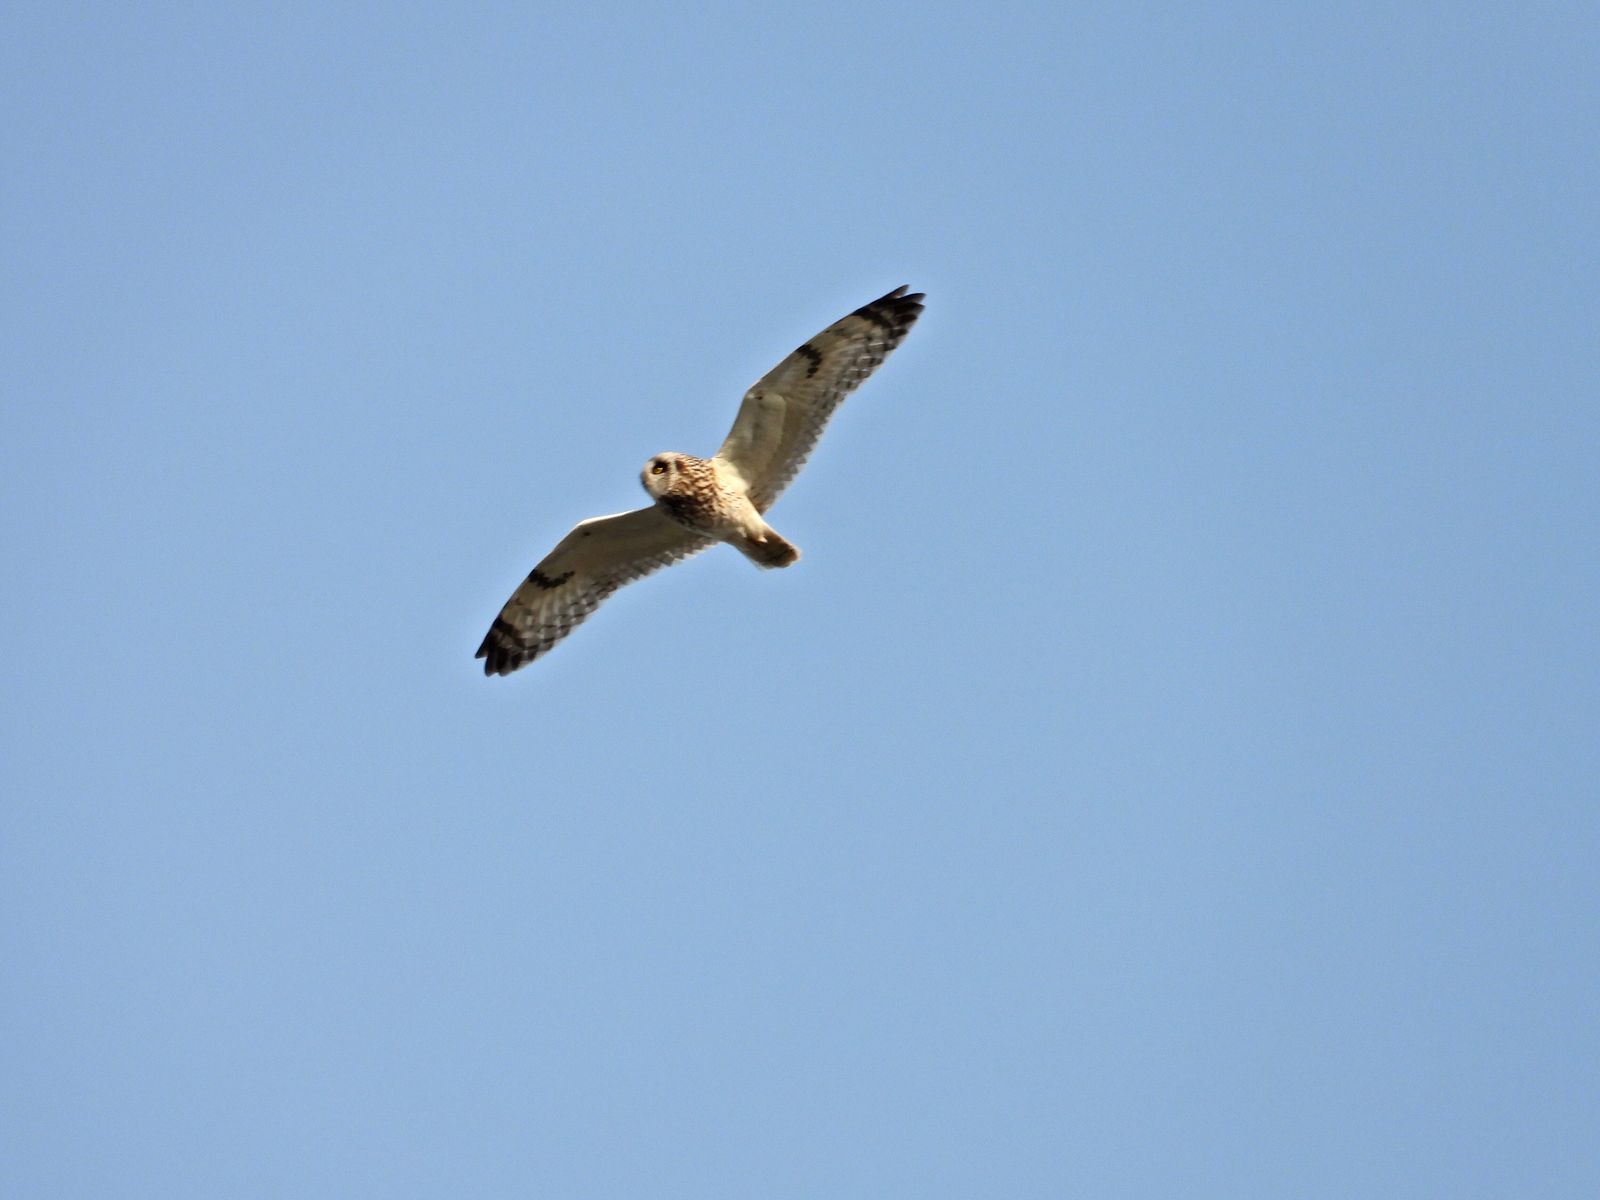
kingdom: Animalia
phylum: Chordata
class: Aves
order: Strigiformes
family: Strigidae
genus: Asio
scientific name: Asio flammeus
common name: Short-eared owl
